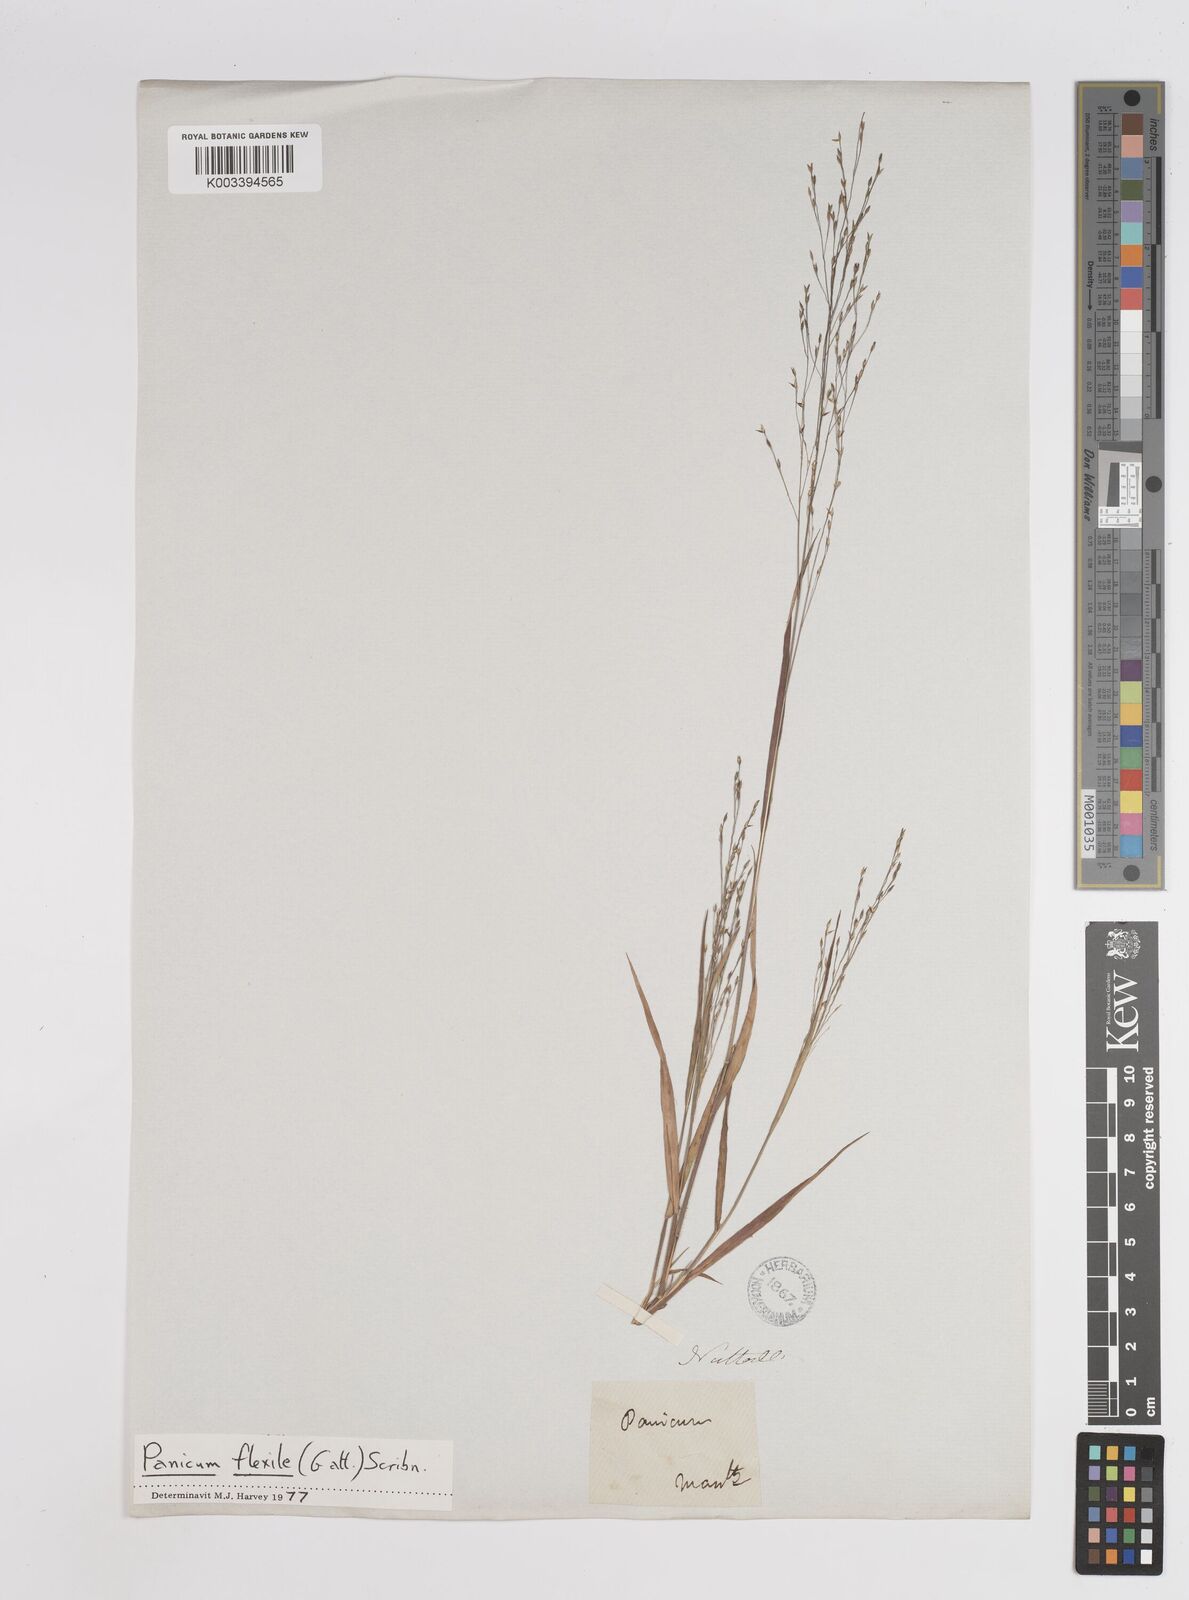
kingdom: Plantae
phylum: Tracheophyta
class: Liliopsida
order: Poales
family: Poaceae
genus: Panicum
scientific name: Panicum flexile
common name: Wiry panicgrass
